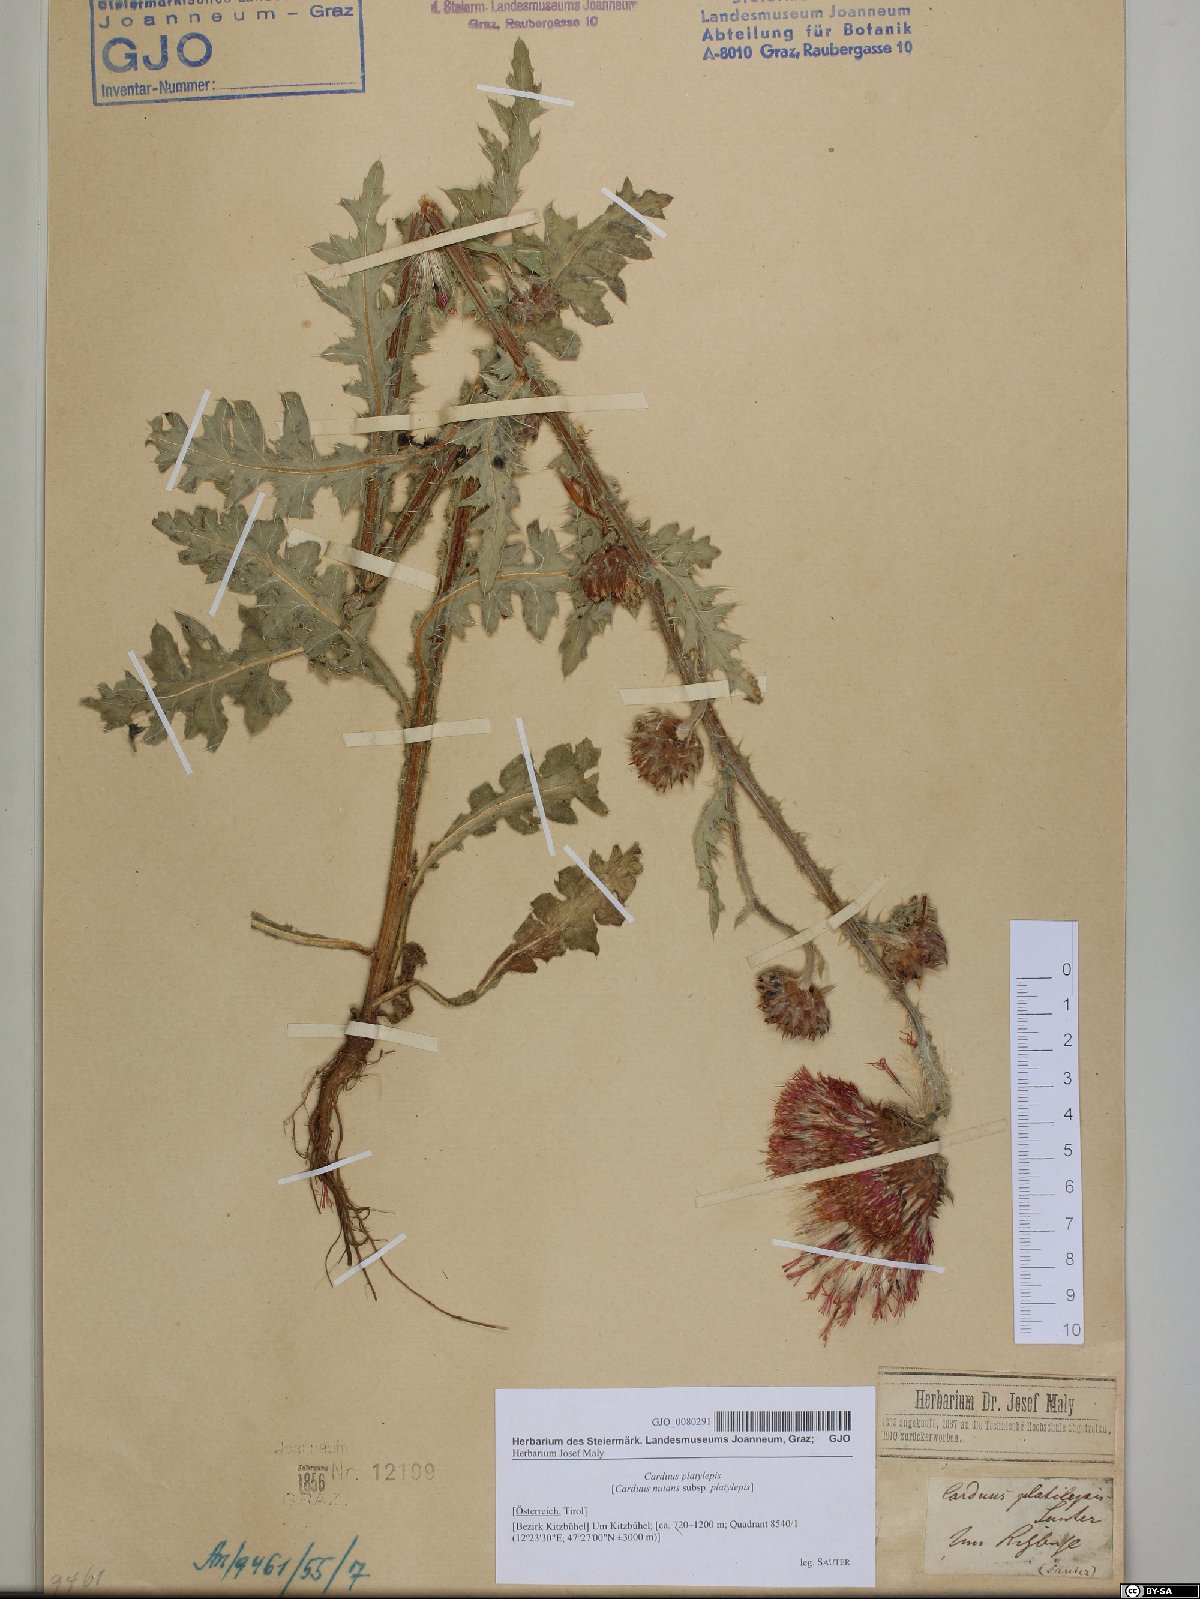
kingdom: Plantae
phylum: Tracheophyta
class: Magnoliopsida
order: Asterales
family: Asteraceae
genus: Carduus
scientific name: Carduus nutans
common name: Musk thistle
